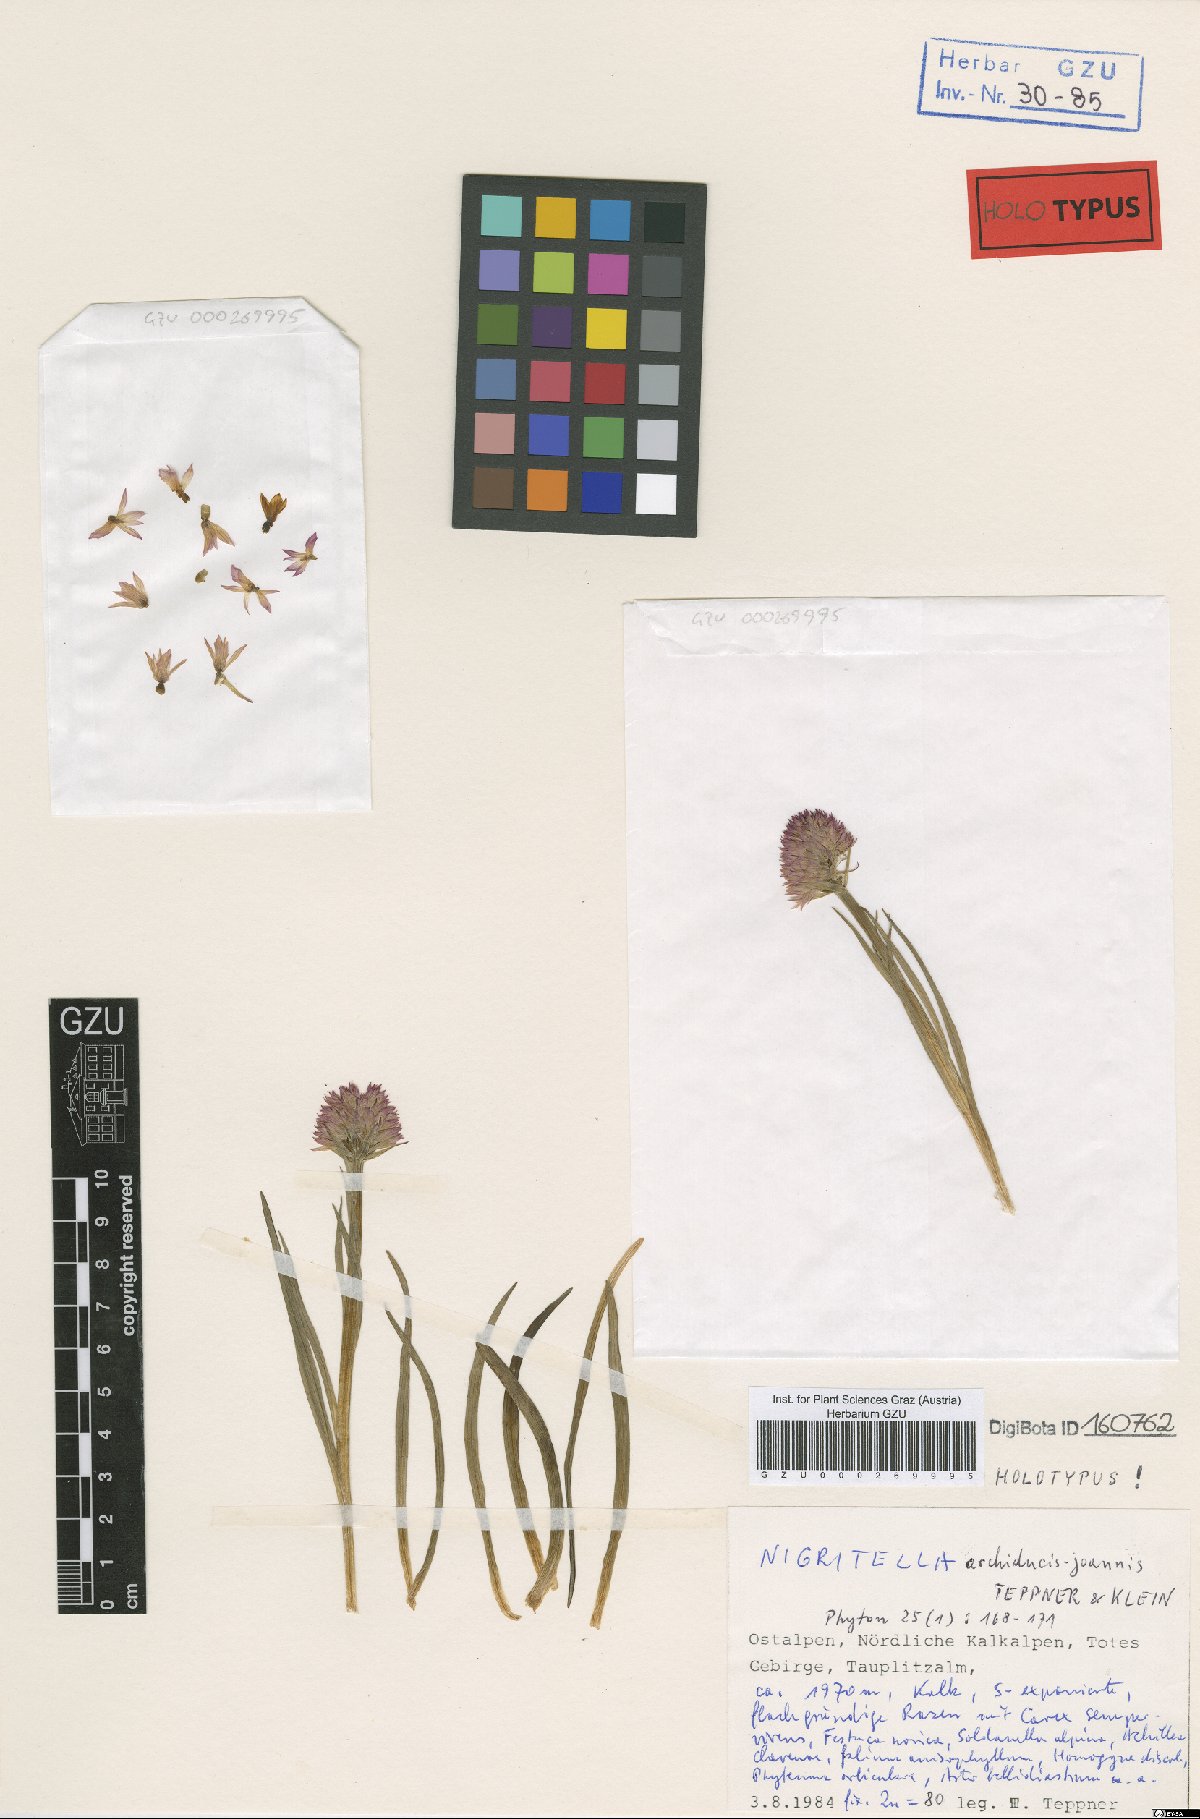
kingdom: Plantae
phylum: Tracheophyta
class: Liliopsida
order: Asparagales
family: Orchidaceae
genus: Gymnadenia
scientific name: Gymnadenia archiducis-joannis
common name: Austrian gymnadenia
